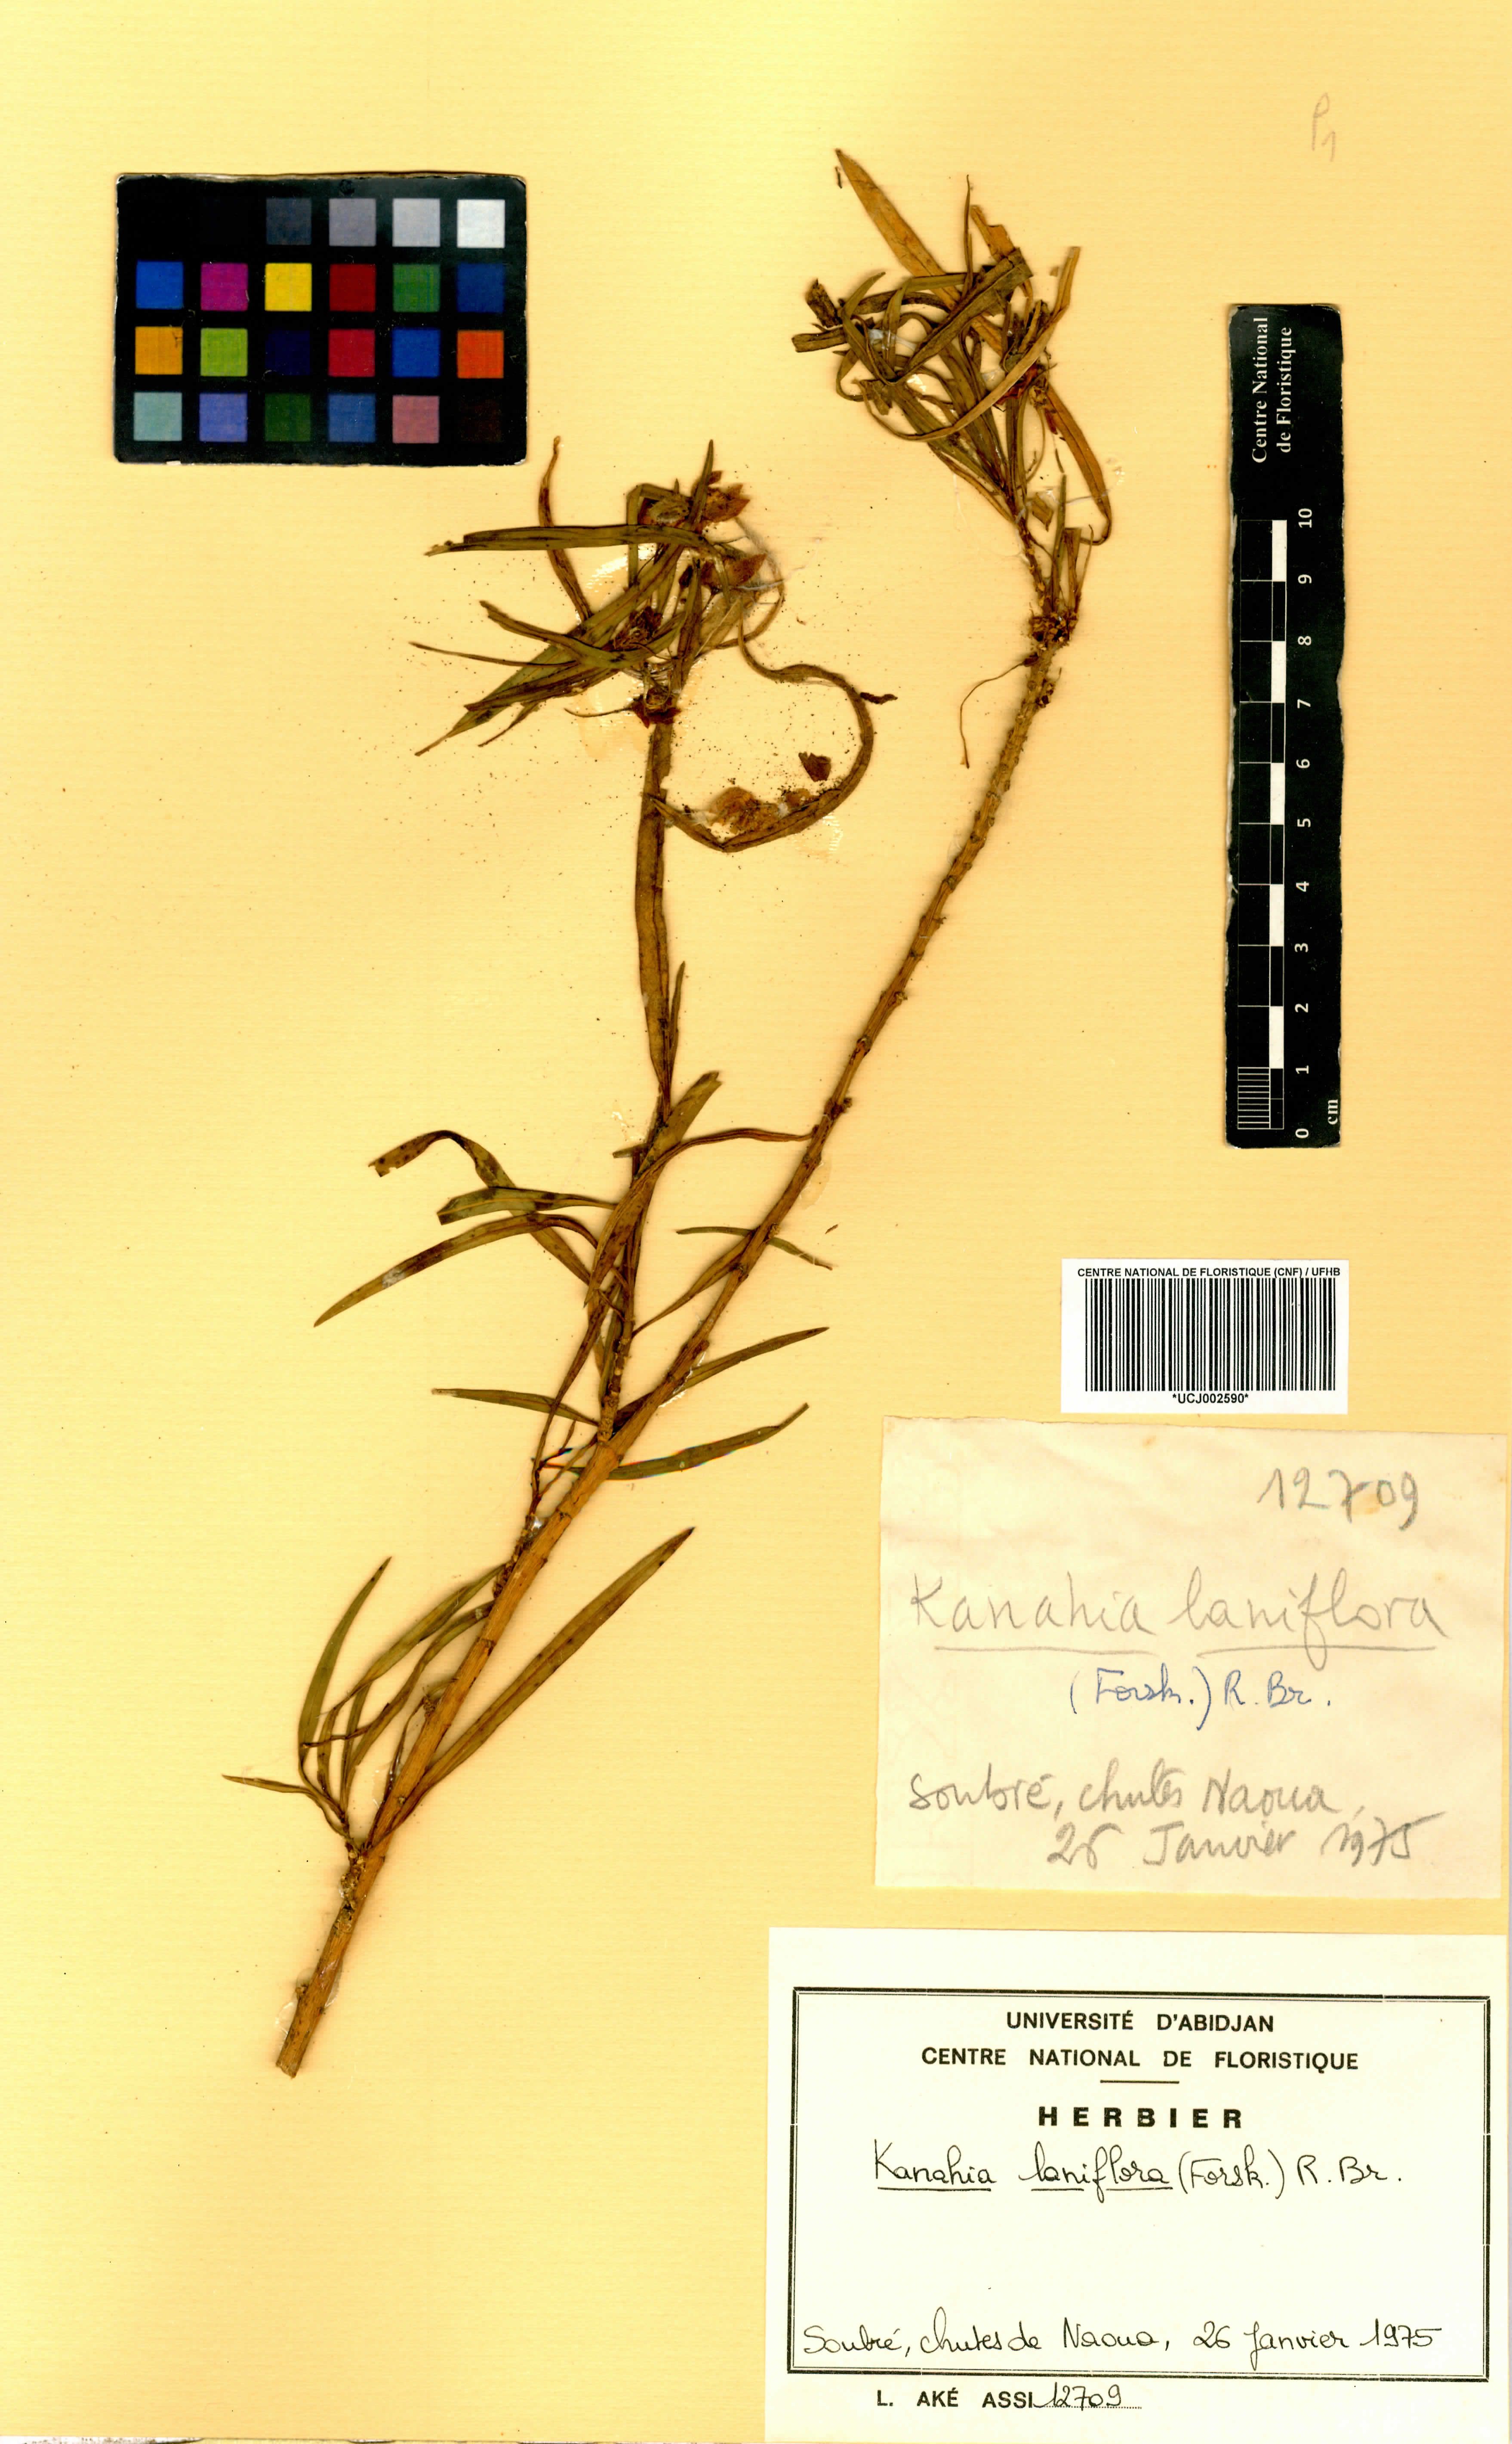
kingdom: Plantae
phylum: Tracheophyta
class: Magnoliopsida
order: Gentianales
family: Apocynaceae
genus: Kanahia
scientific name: Kanahia laniflora
